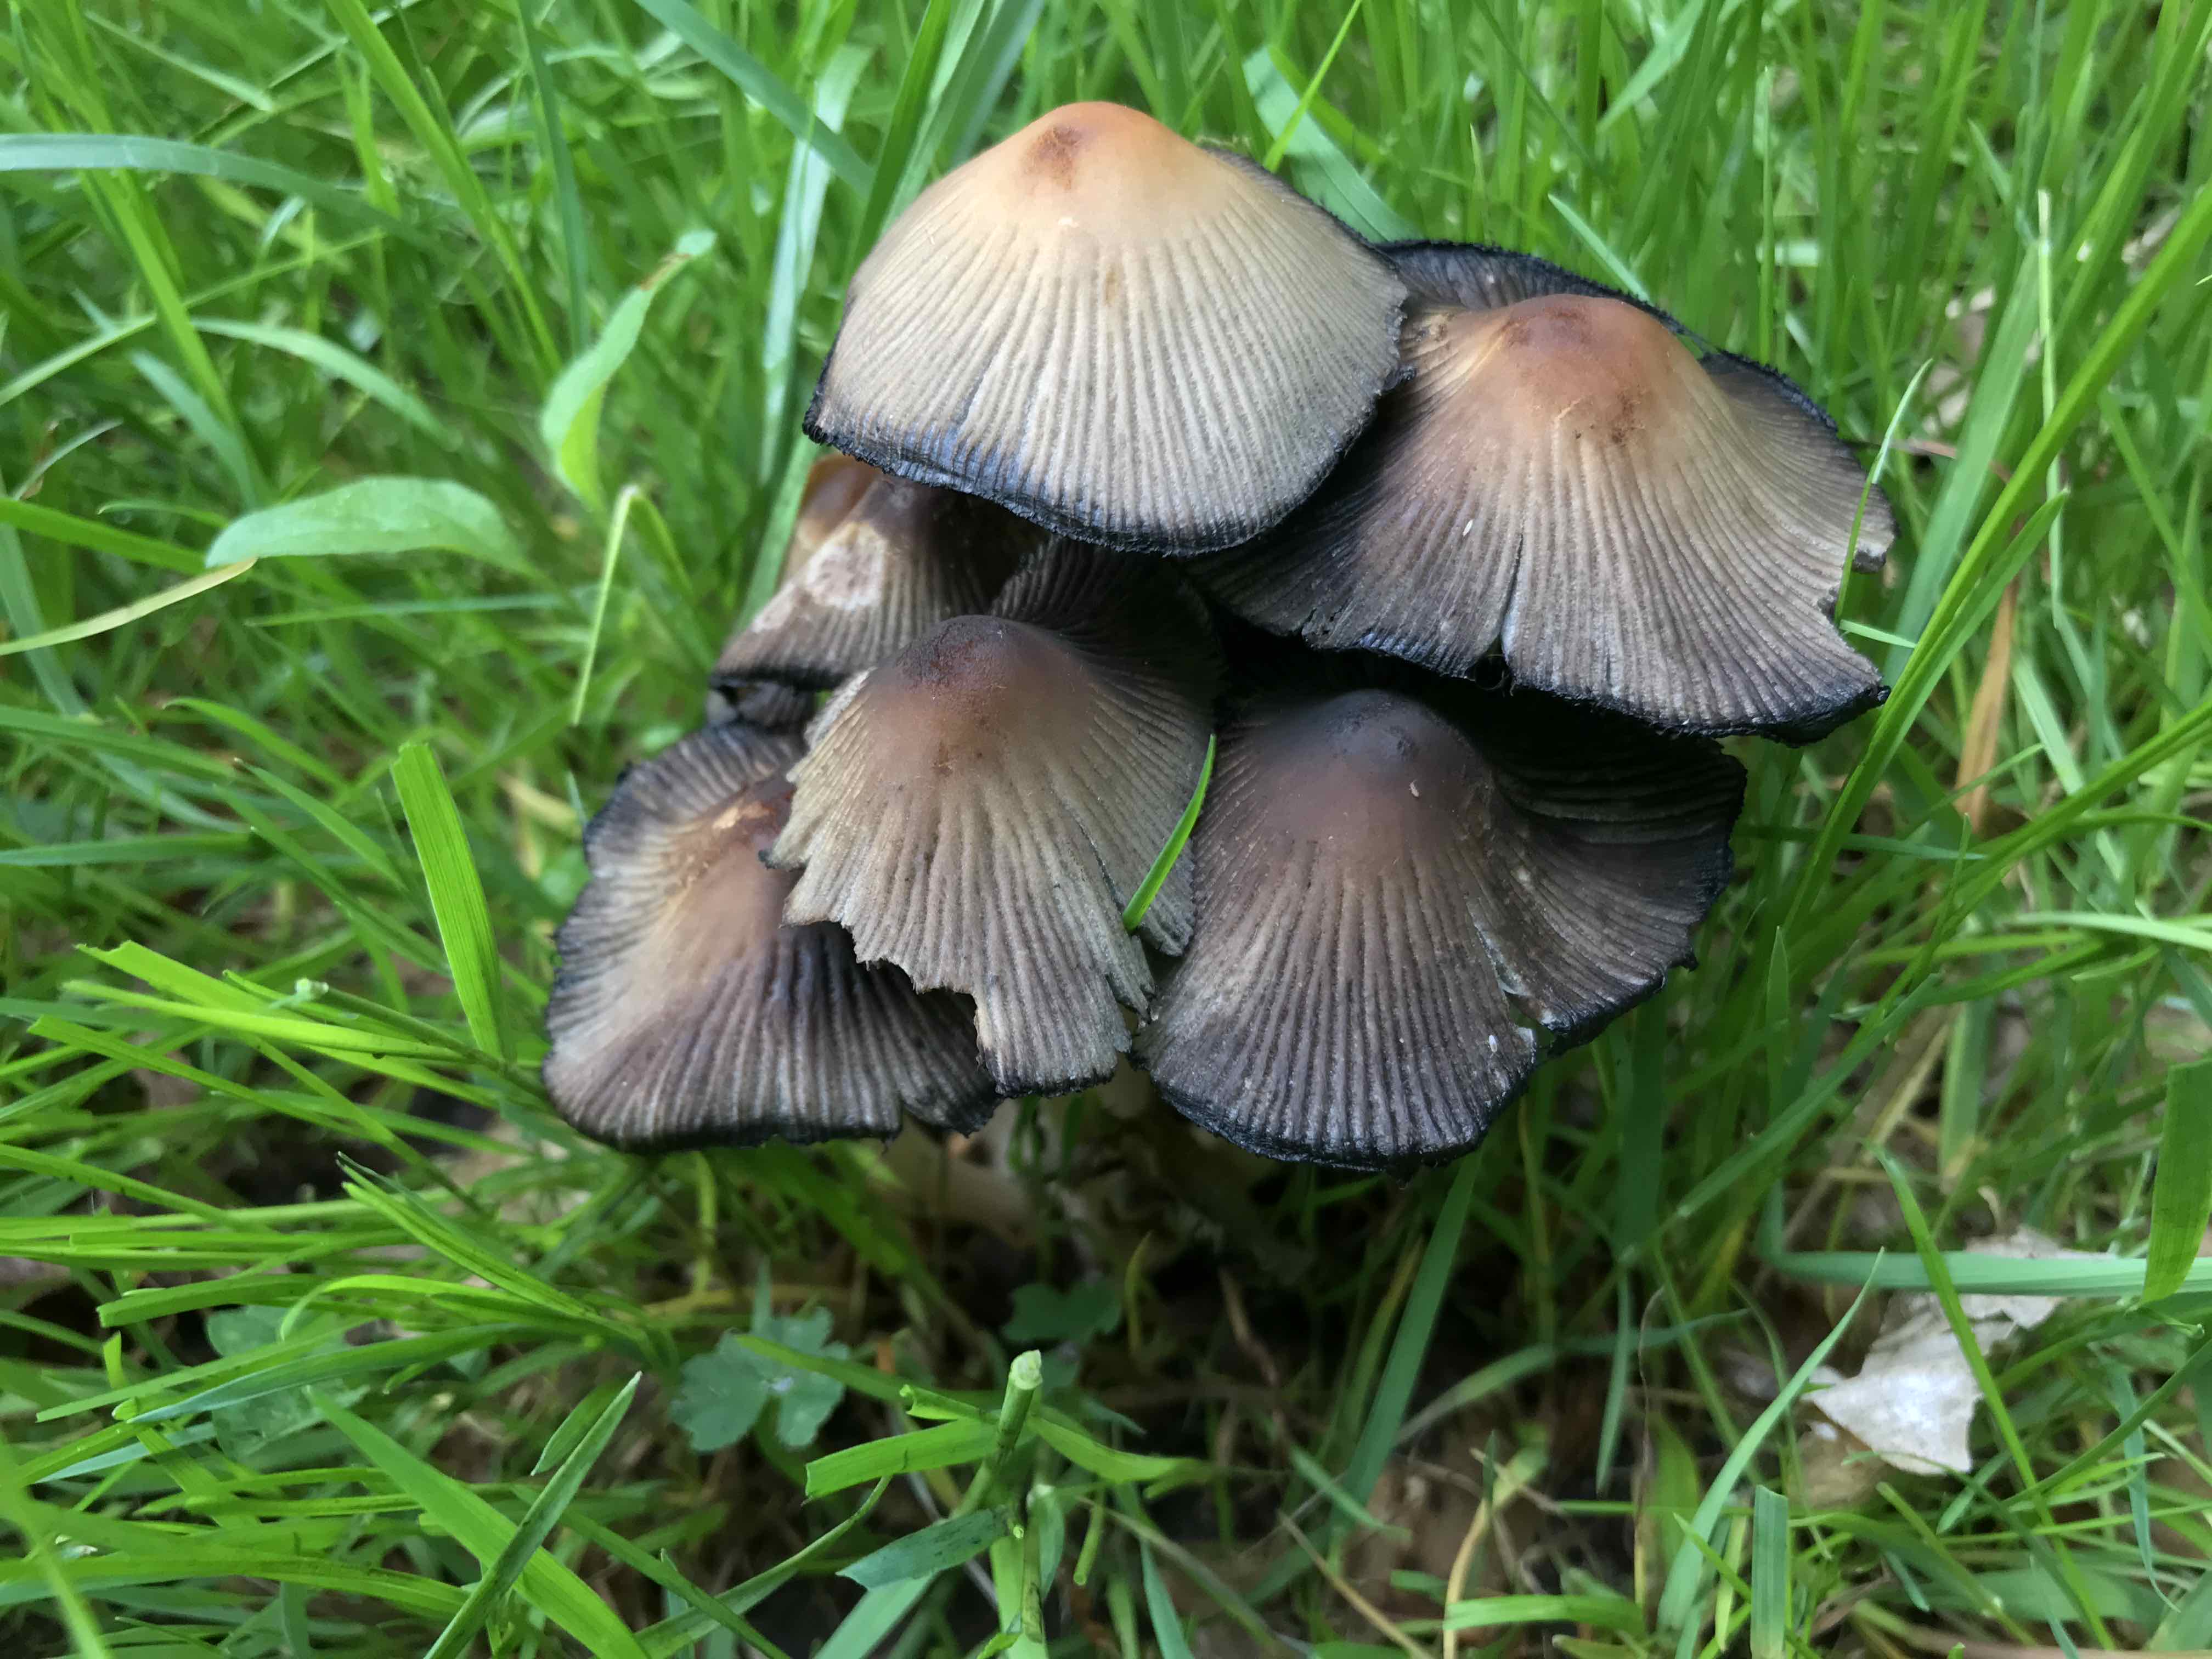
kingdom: Fungi
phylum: Basidiomycota
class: Agaricomycetes
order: Agaricales
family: Psathyrellaceae
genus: Coprinellus
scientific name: Coprinellus micaceus
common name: glimmer-blækhat
